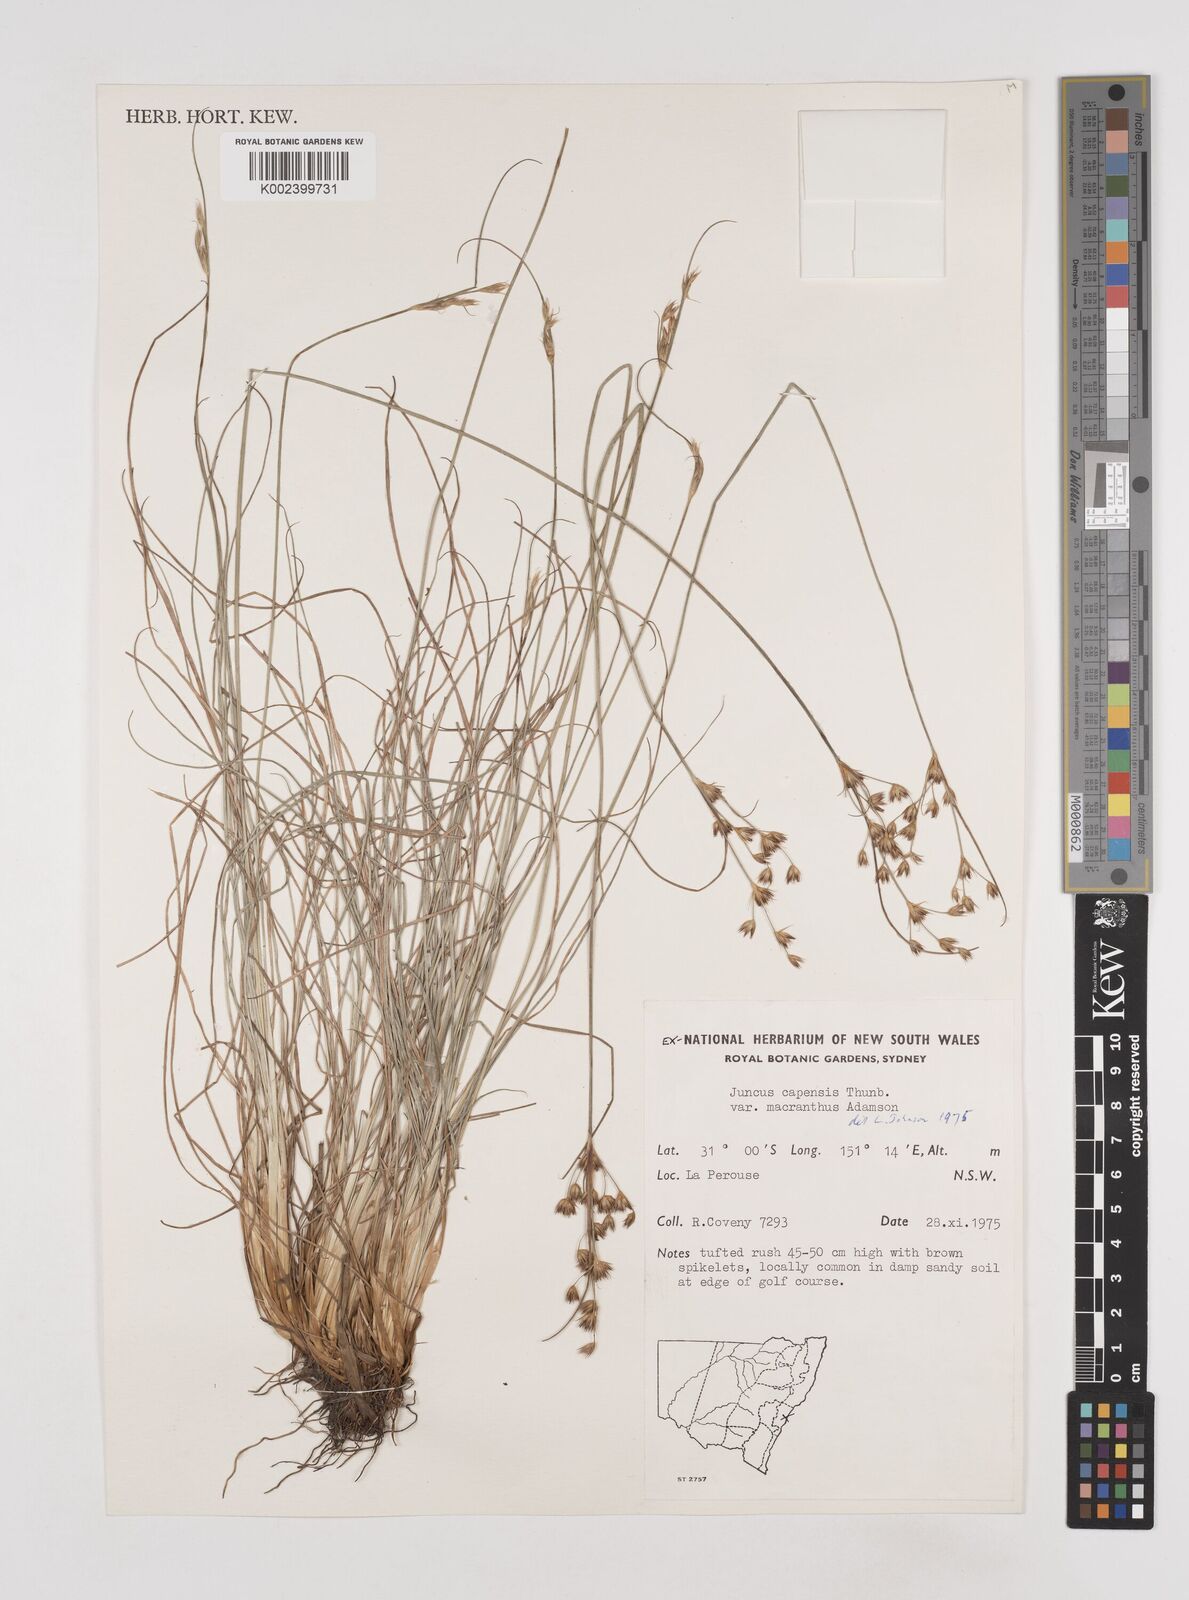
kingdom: Plantae
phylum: Tracheophyta
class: Liliopsida
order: Poales
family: Juncaceae
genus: Juncus
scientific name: Juncus capensis
